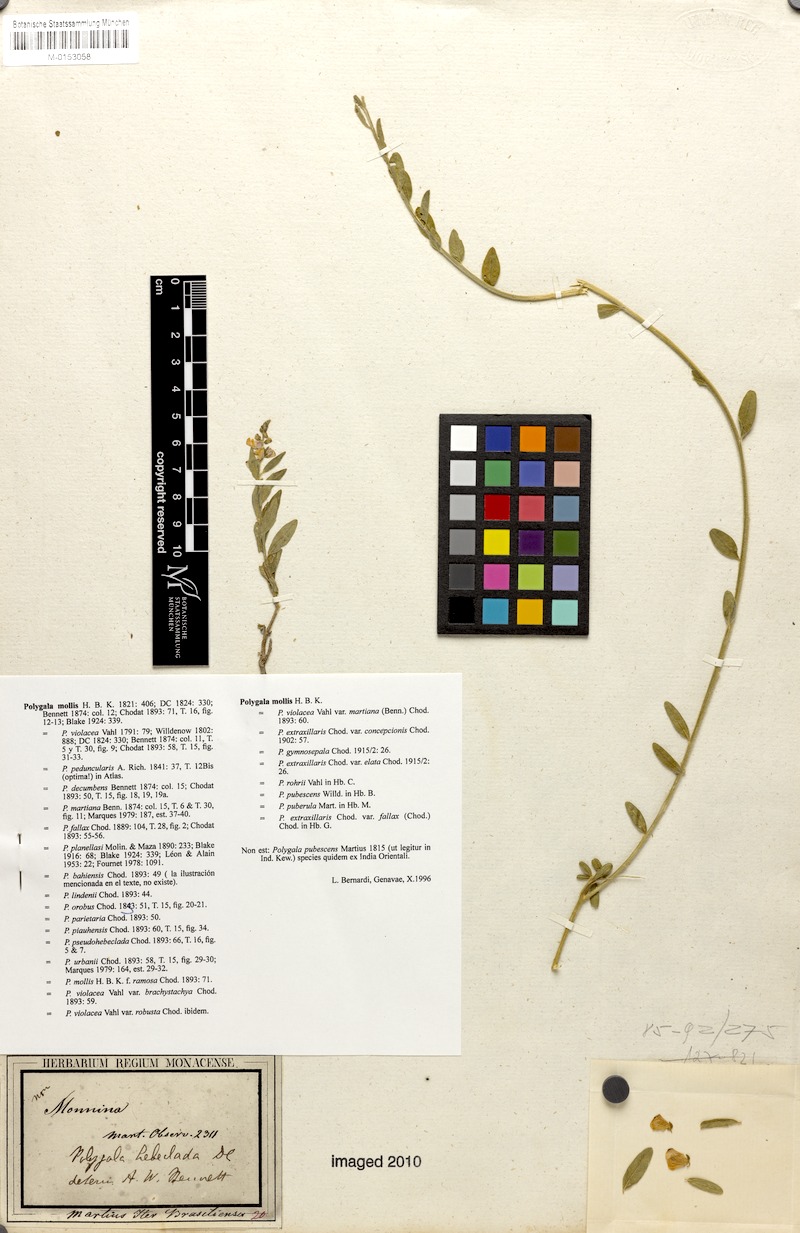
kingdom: Plantae
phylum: Tracheophyta
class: Magnoliopsida
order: Fabales
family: Polygalaceae
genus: Asemeia
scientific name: Asemeia mollis
